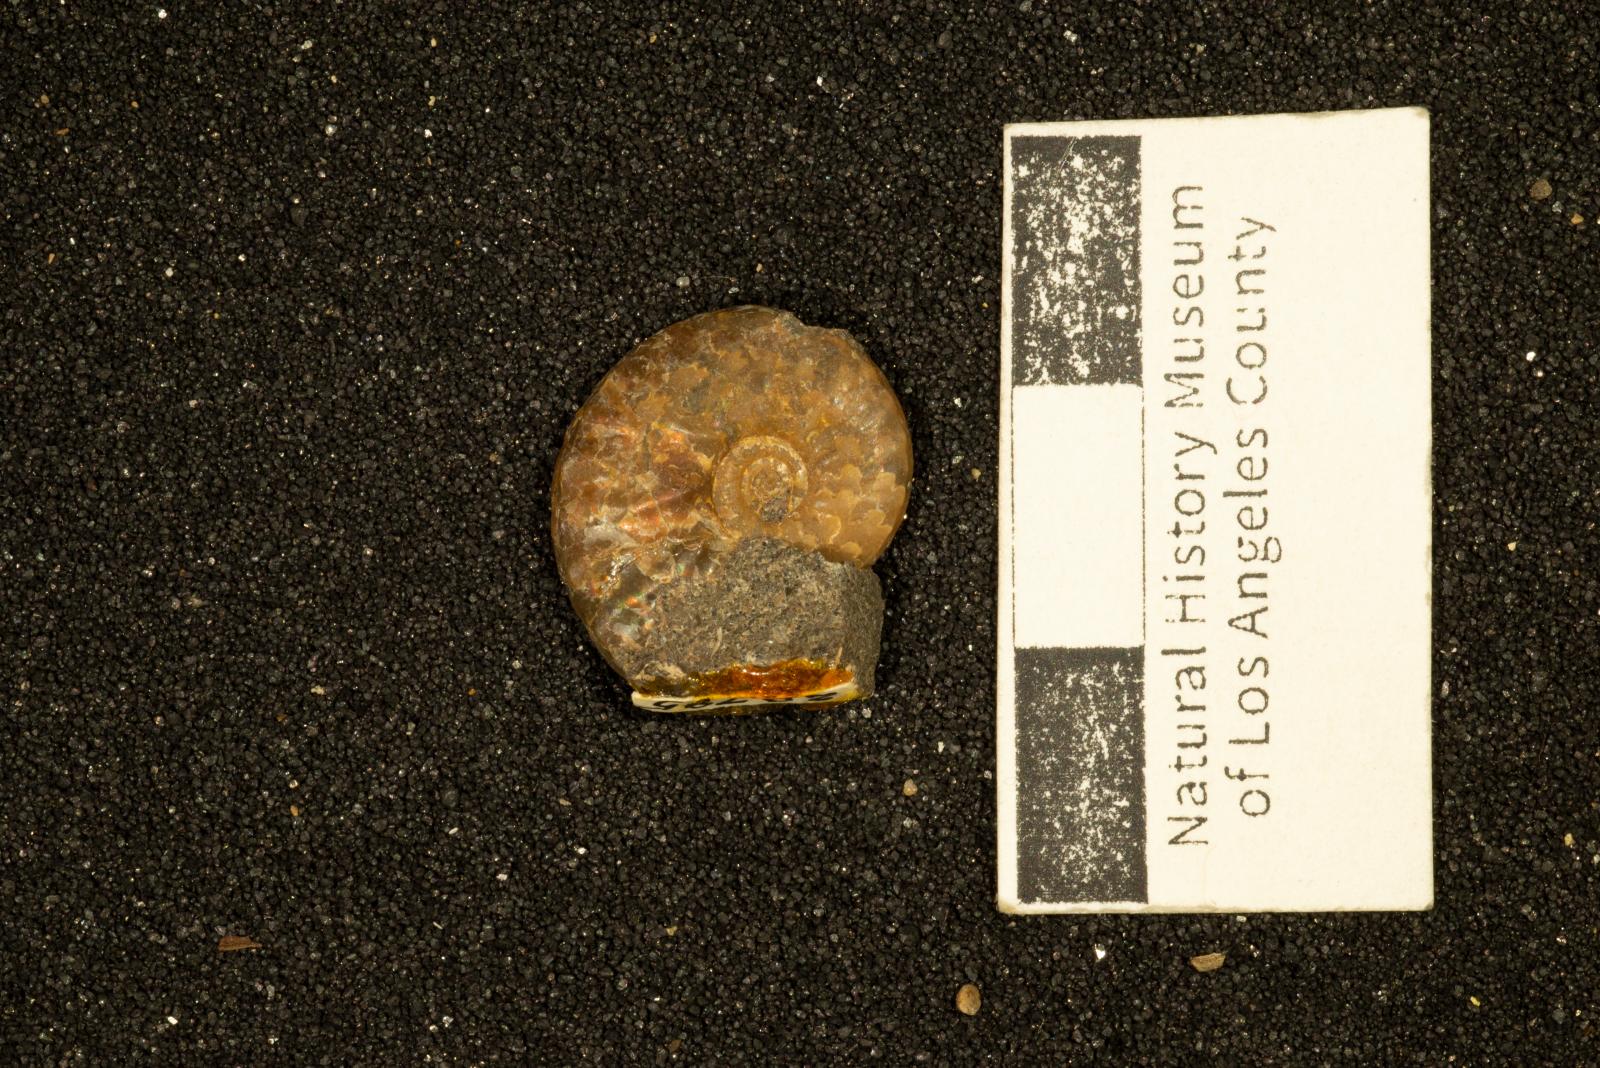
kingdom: Animalia
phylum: Mollusca
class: Cephalopoda
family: Collignoniceratidae
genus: Subprionocyclus
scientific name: Subprionocyclus
